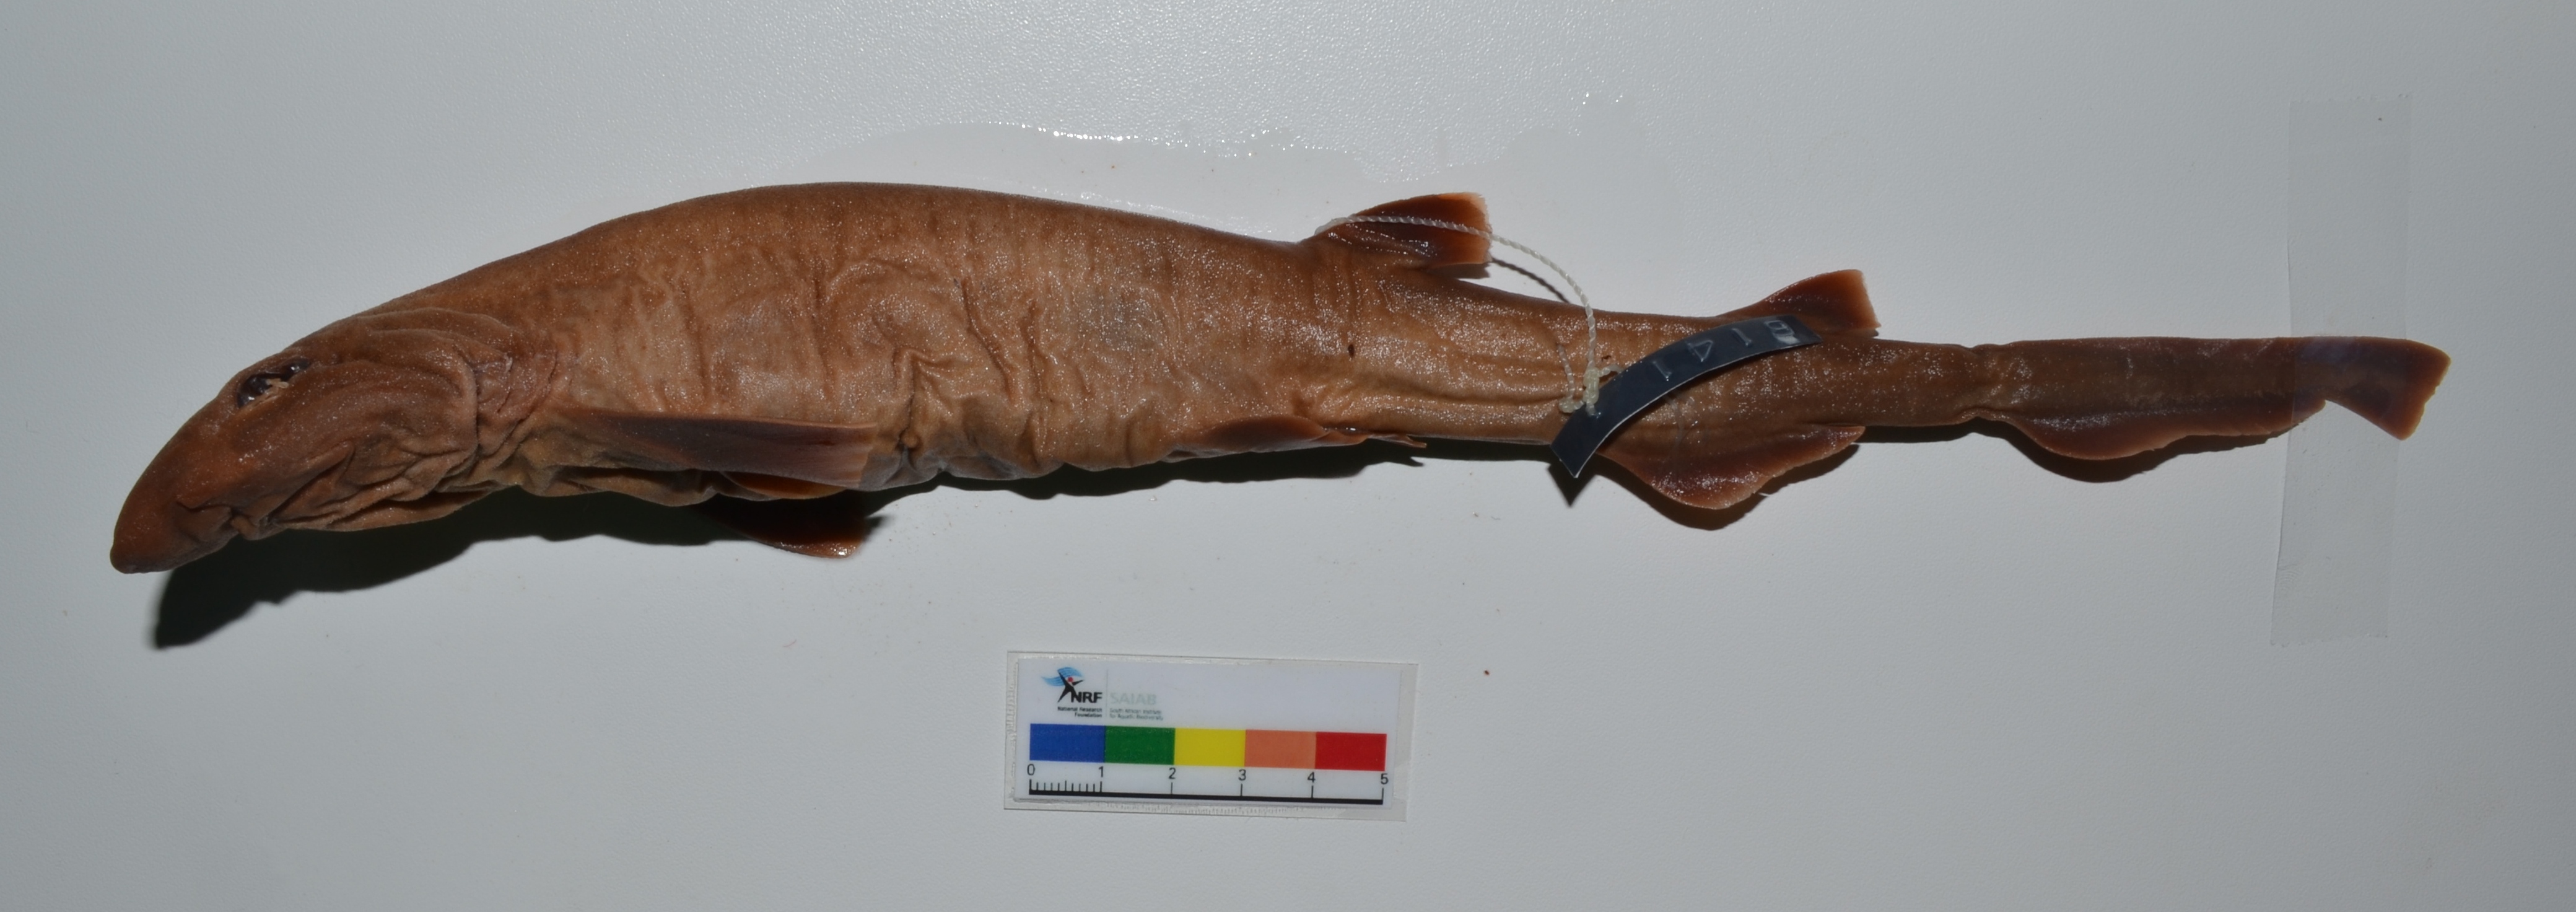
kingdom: Animalia
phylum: Chordata
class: Elasmobranchii
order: Carcharhiniformes
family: Scyliorhinidae
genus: Bythaelurus
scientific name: Bythaelurus lutarius
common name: Mud catshark
